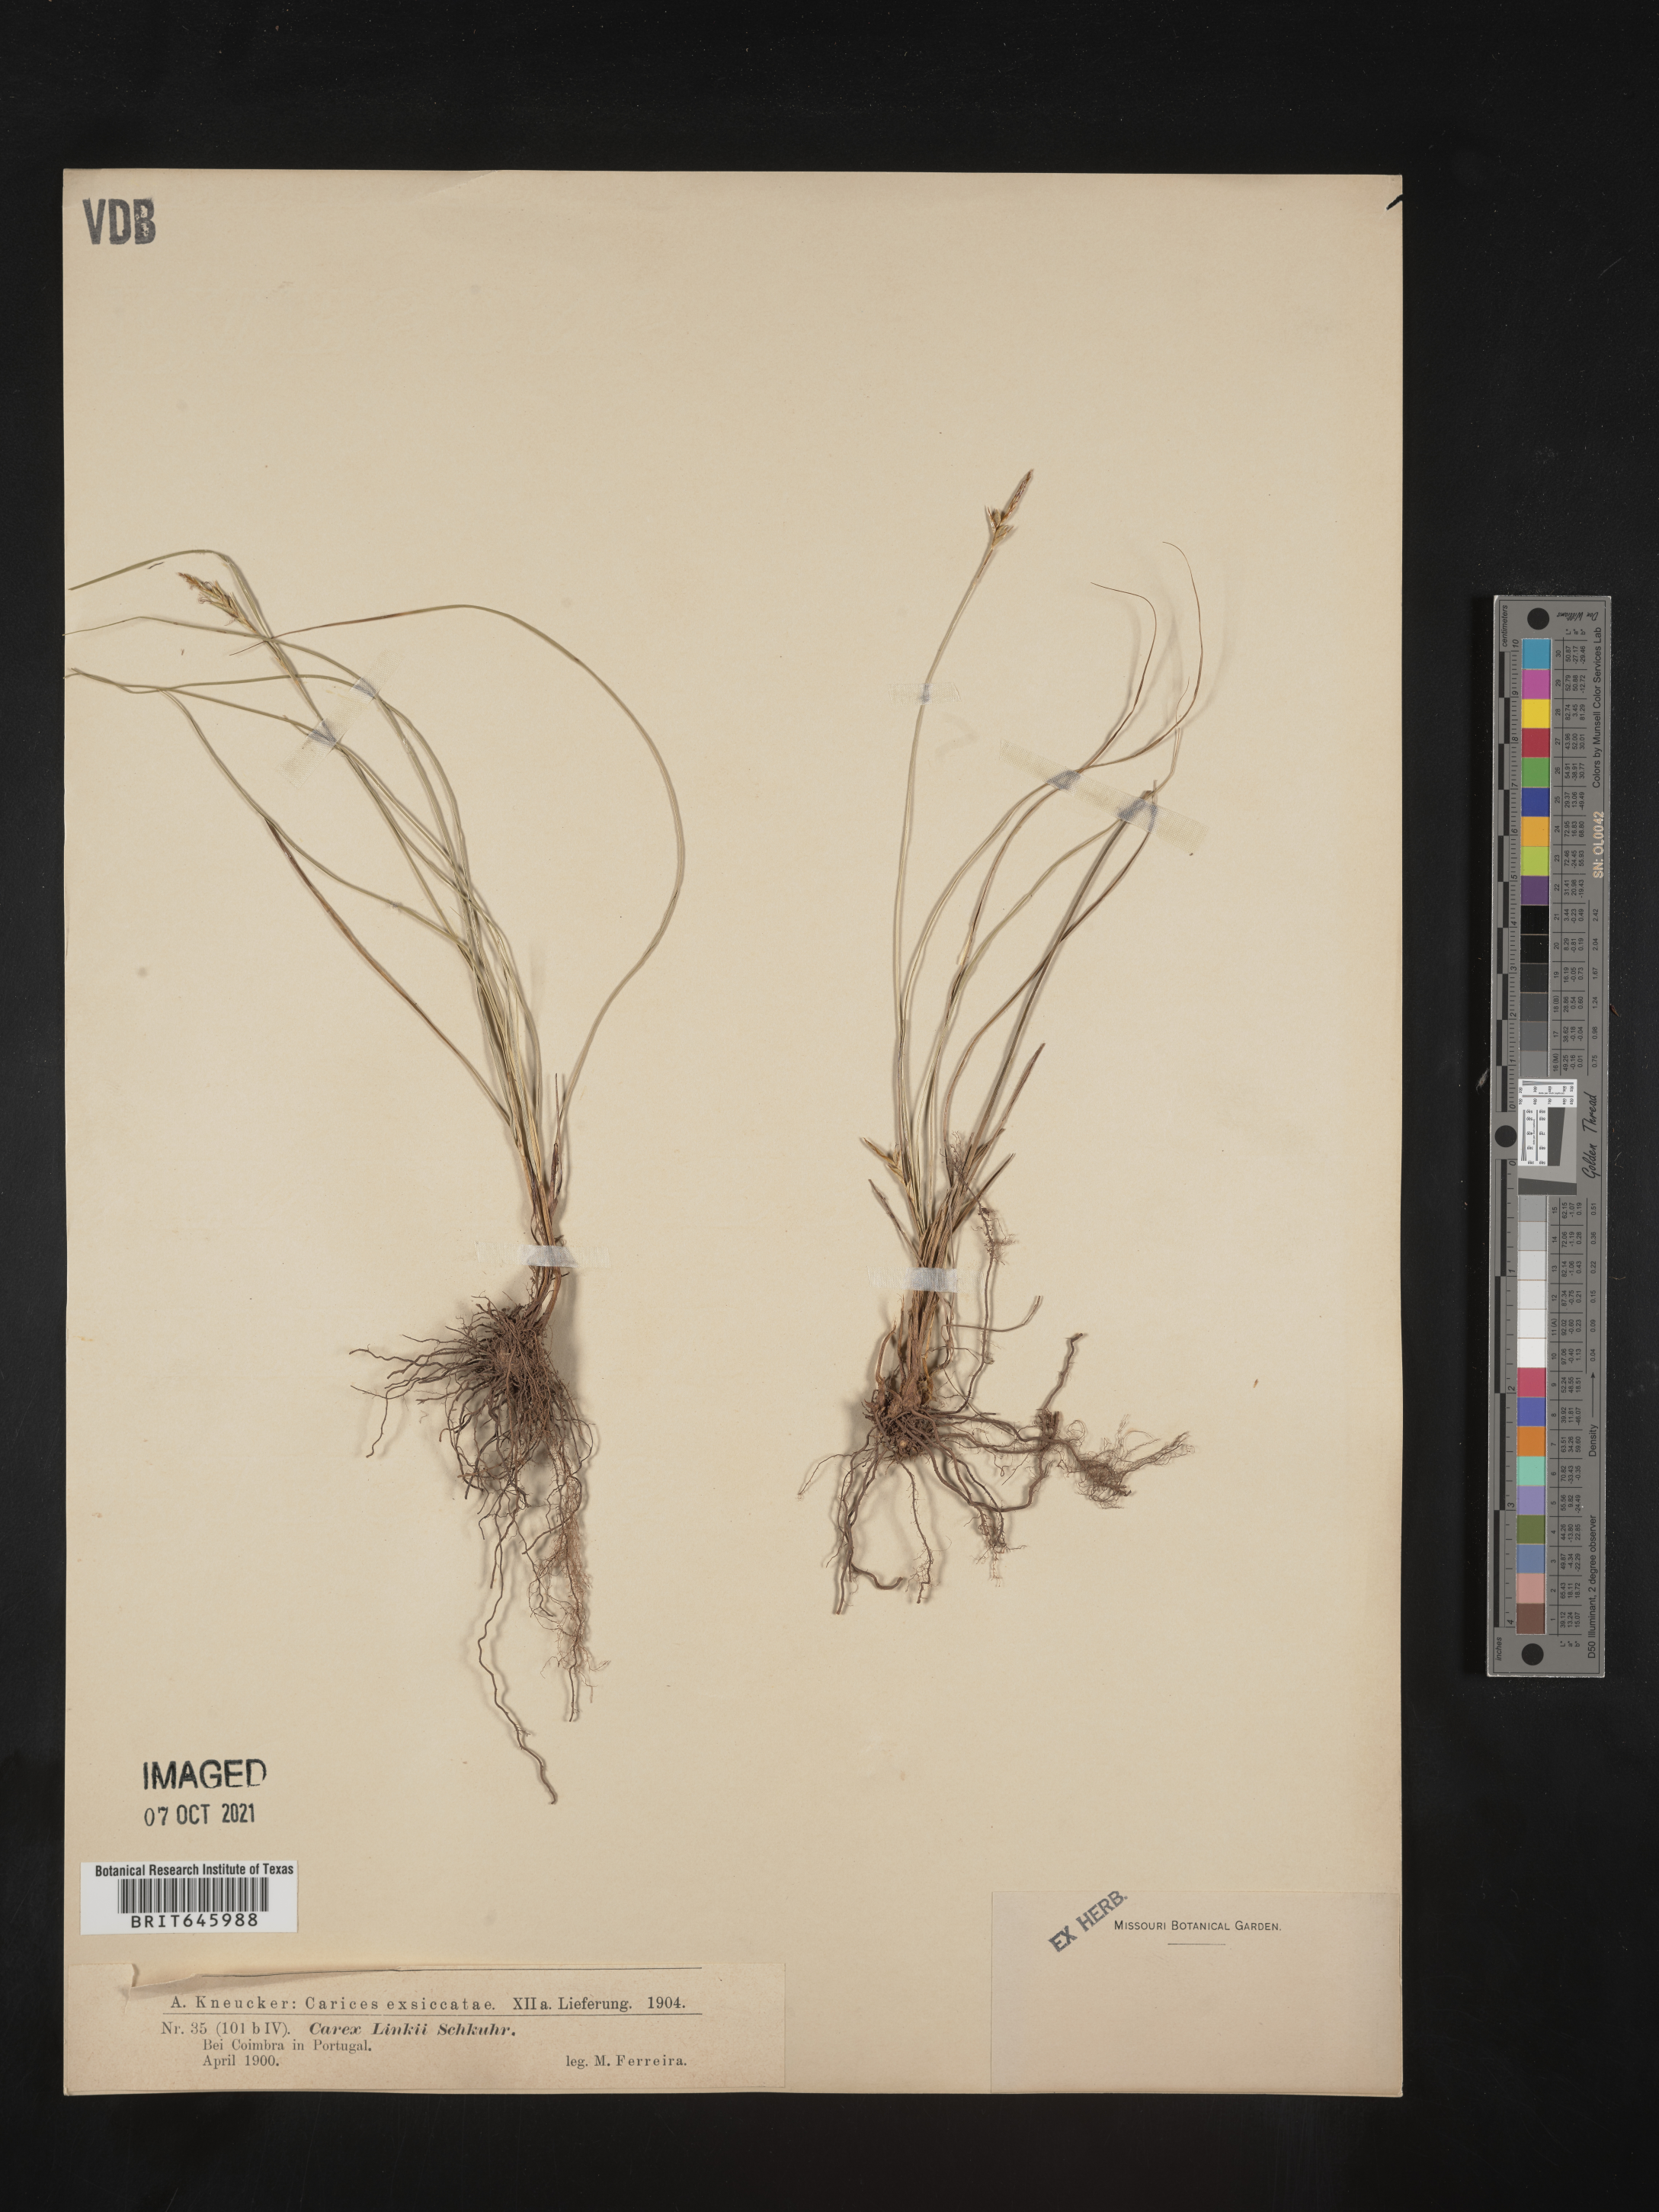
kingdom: Plantae
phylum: Tracheophyta
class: Liliopsida
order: Poales
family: Cyperaceae
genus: Carex
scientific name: Carex distachya
